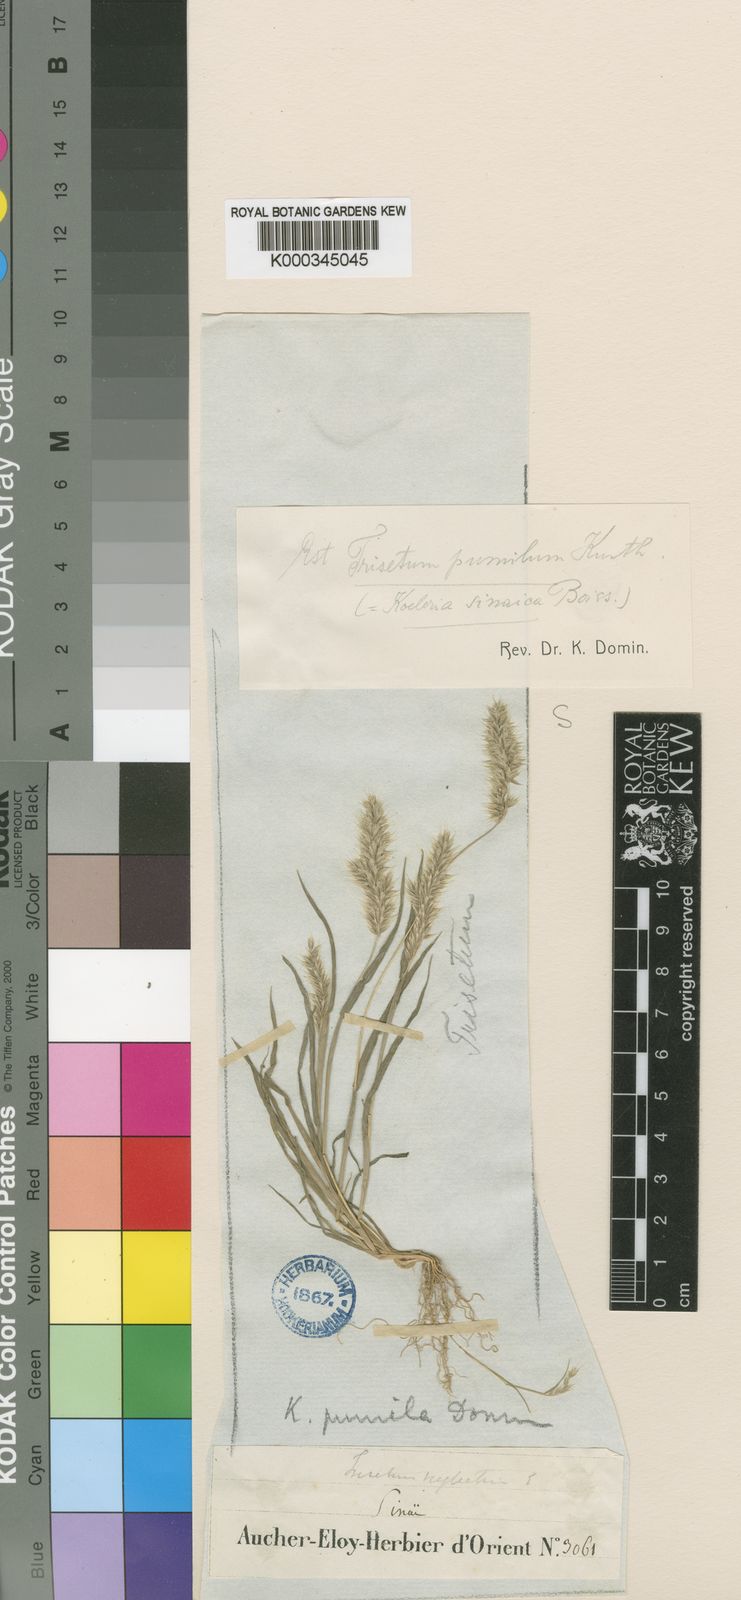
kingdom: Plantae
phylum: Tracheophyta
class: Liliopsida
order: Poales
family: Poaceae
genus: Rostraria
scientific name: Rostraria pumila
